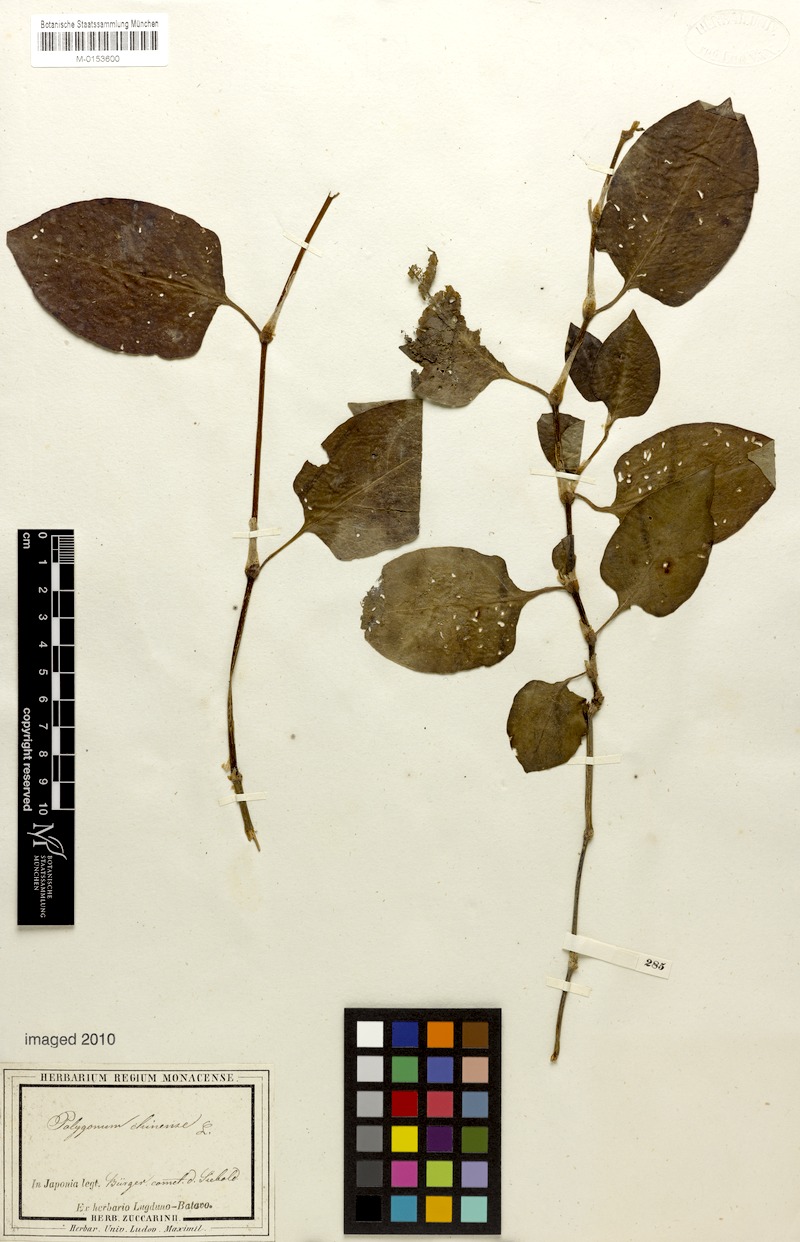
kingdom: Plantae
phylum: Tracheophyta
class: Magnoliopsida
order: Caryophyllales
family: Polygonaceae
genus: Persicaria
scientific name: Persicaria chinensis
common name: Chinese knotweed
